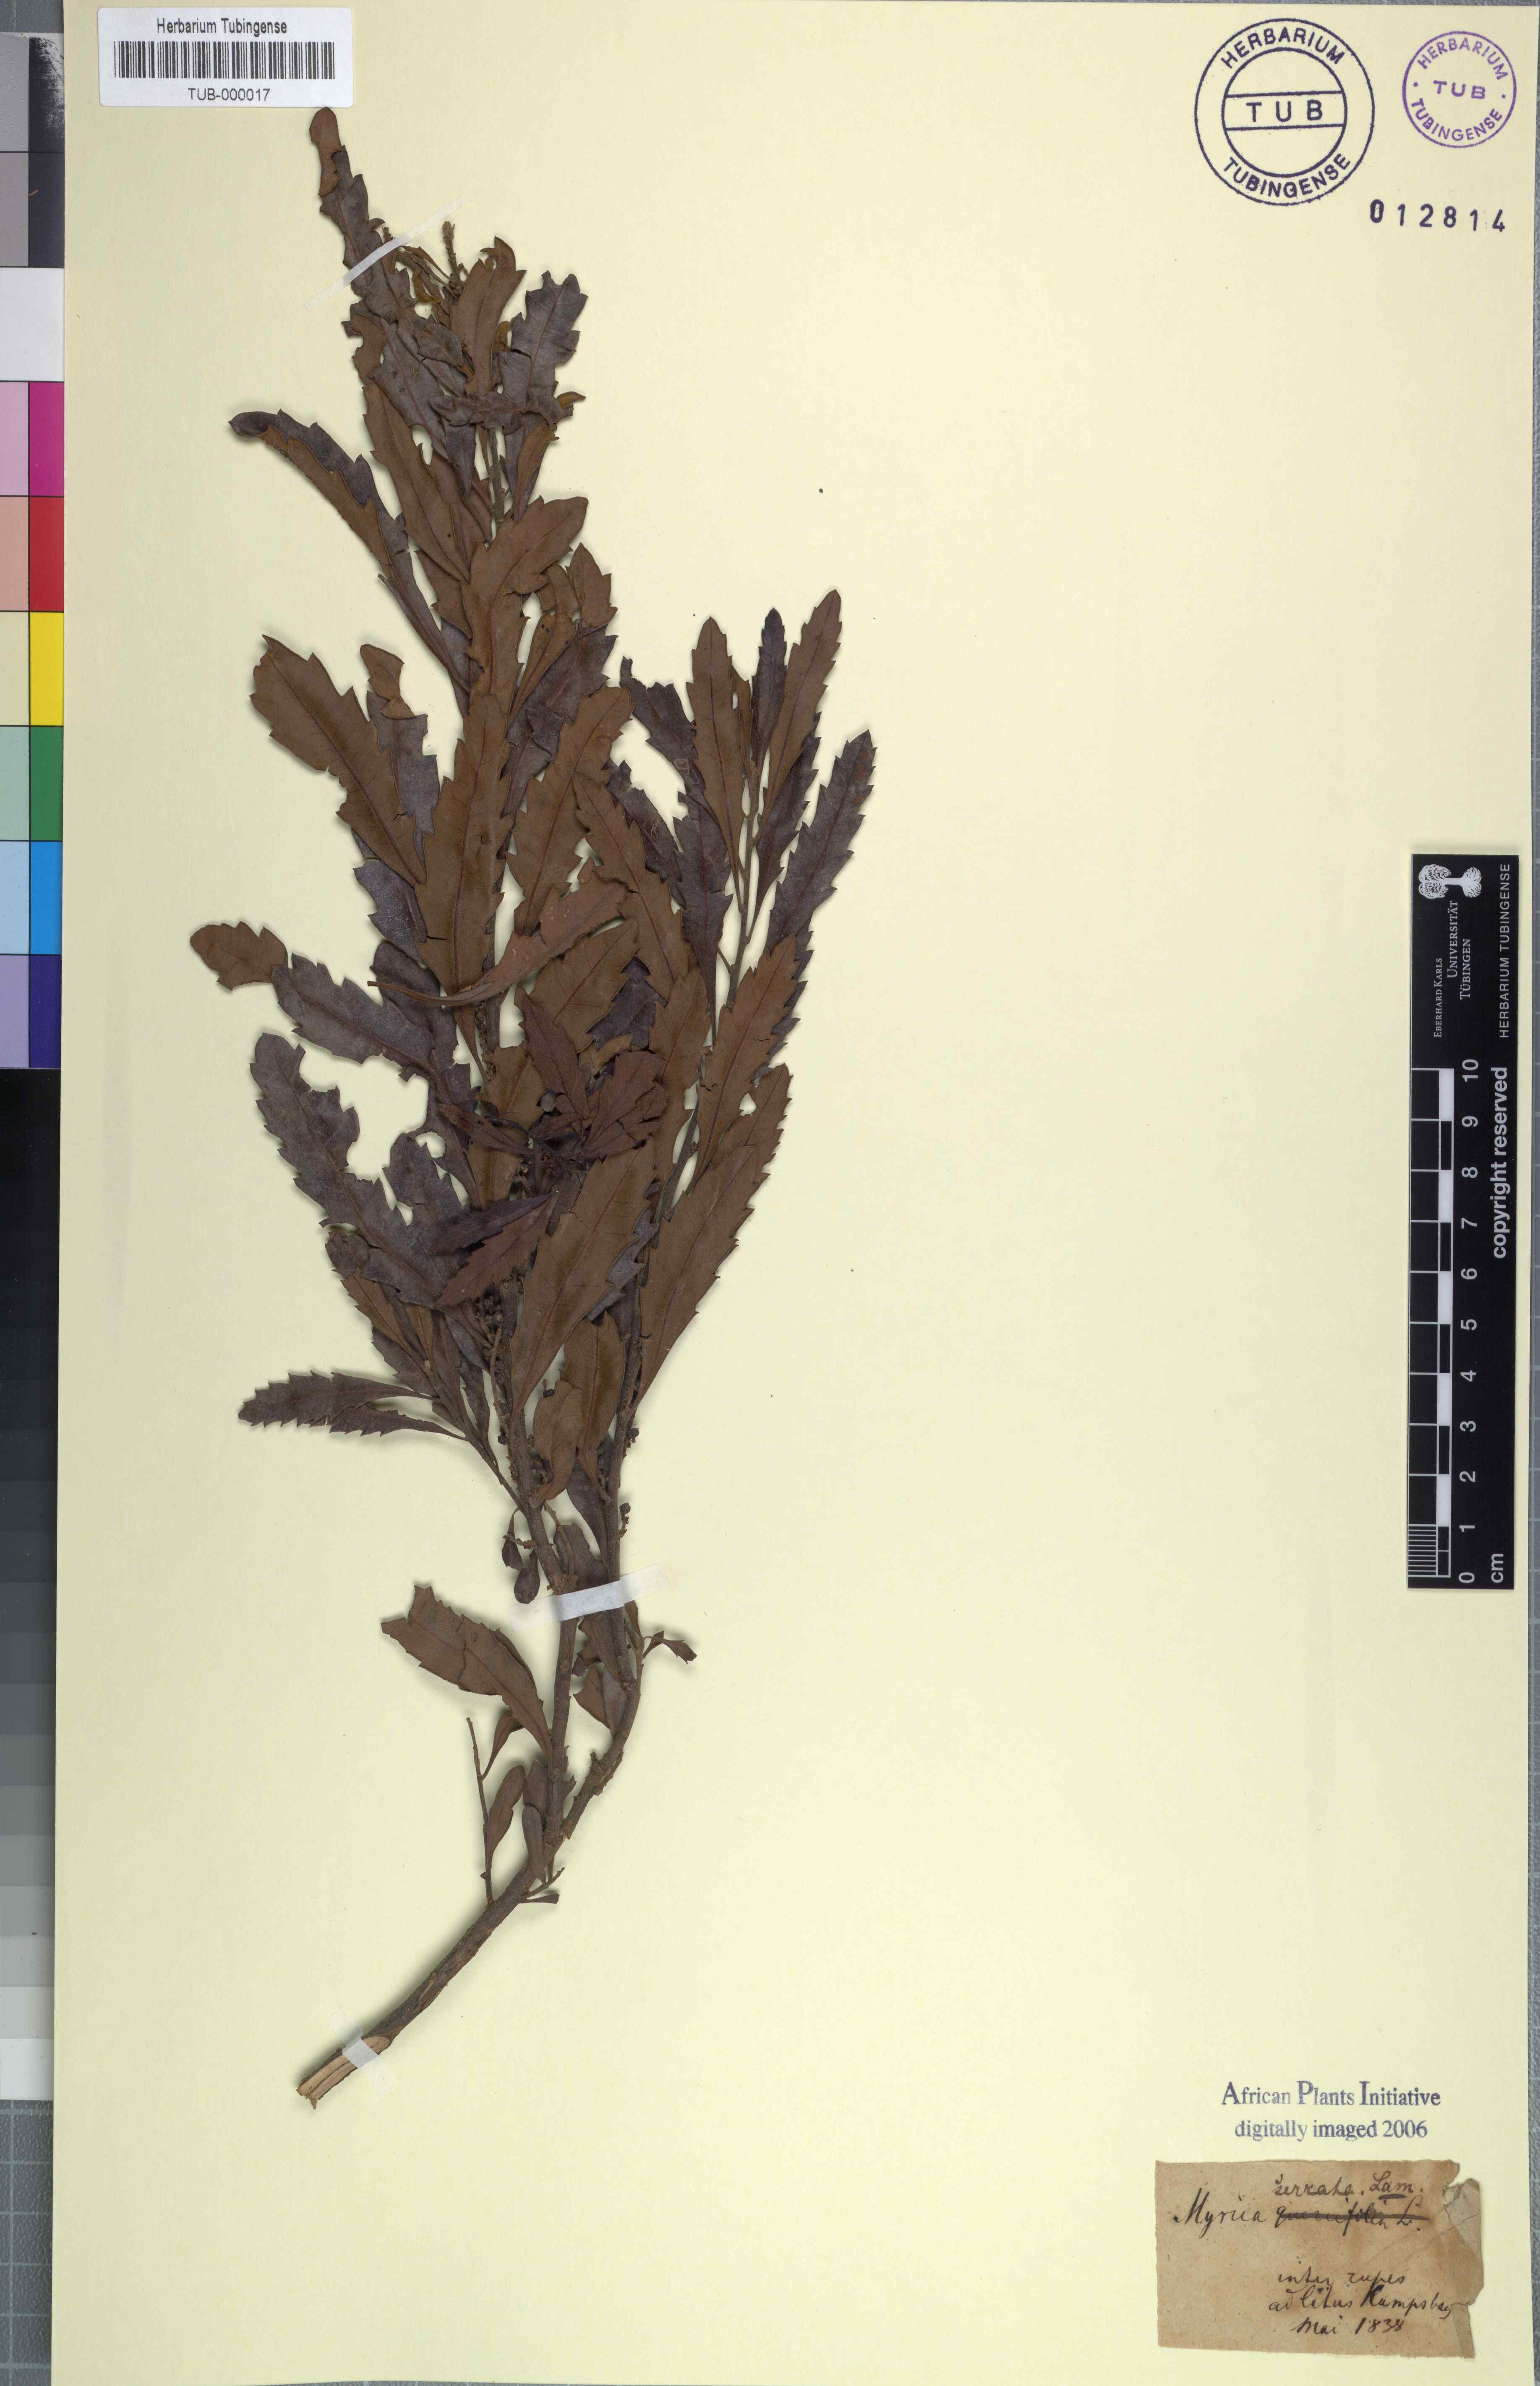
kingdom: Plantae
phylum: Tracheophyta
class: Magnoliopsida
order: Fagales
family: Myricaceae
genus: Morella
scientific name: Morella serrata
